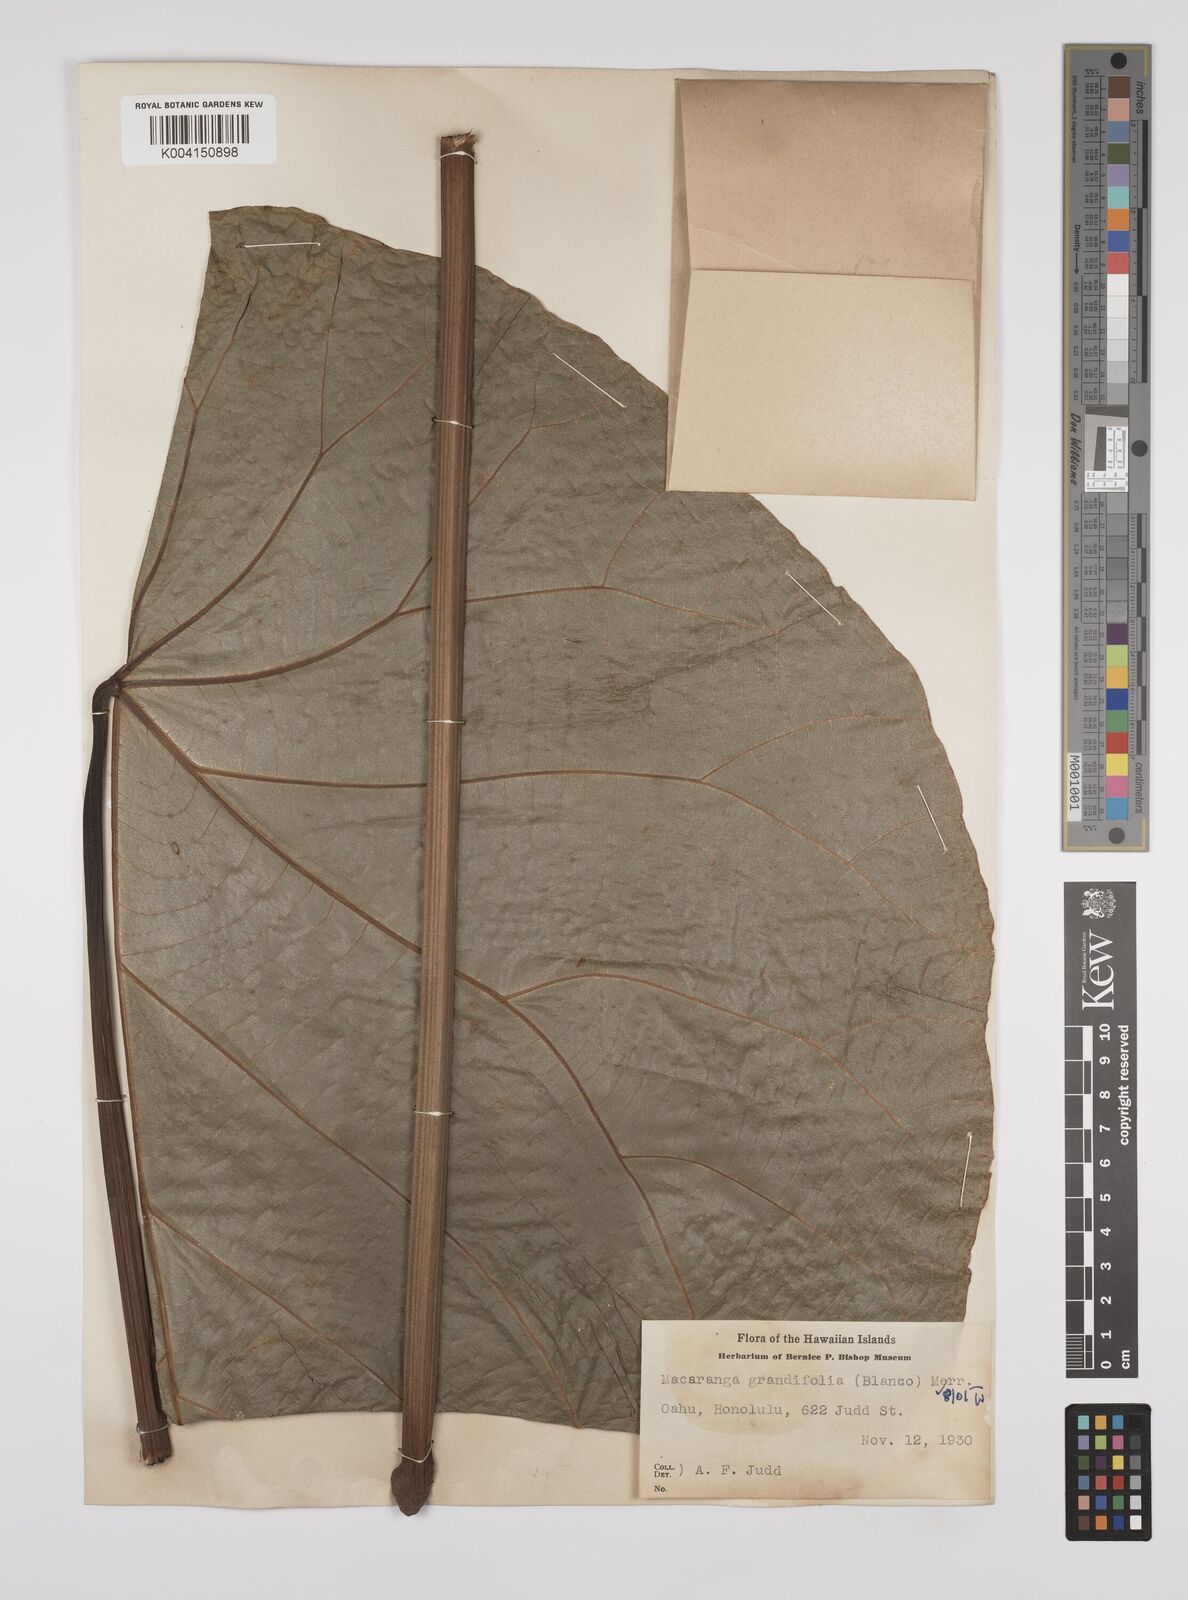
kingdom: Plantae
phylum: Tracheophyta
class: Magnoliopsida
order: Malpighiales
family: Euphorbiaceae
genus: Macaranga
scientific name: Macaranga grandifolia
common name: Coraltree
